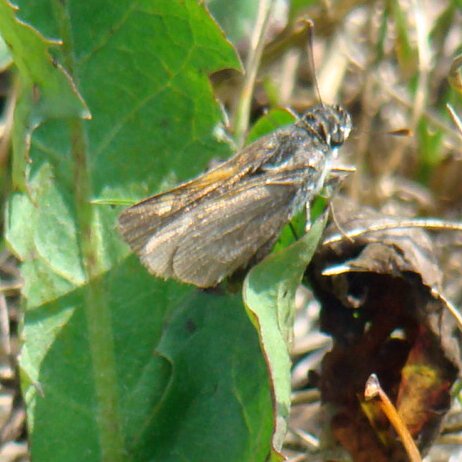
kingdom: Animalia
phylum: Arthropoda
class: Insecta
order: Lepidoptera
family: Hesperiidae
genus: Polites
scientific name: Polites themistocles
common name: Tawny-edged Skipper
